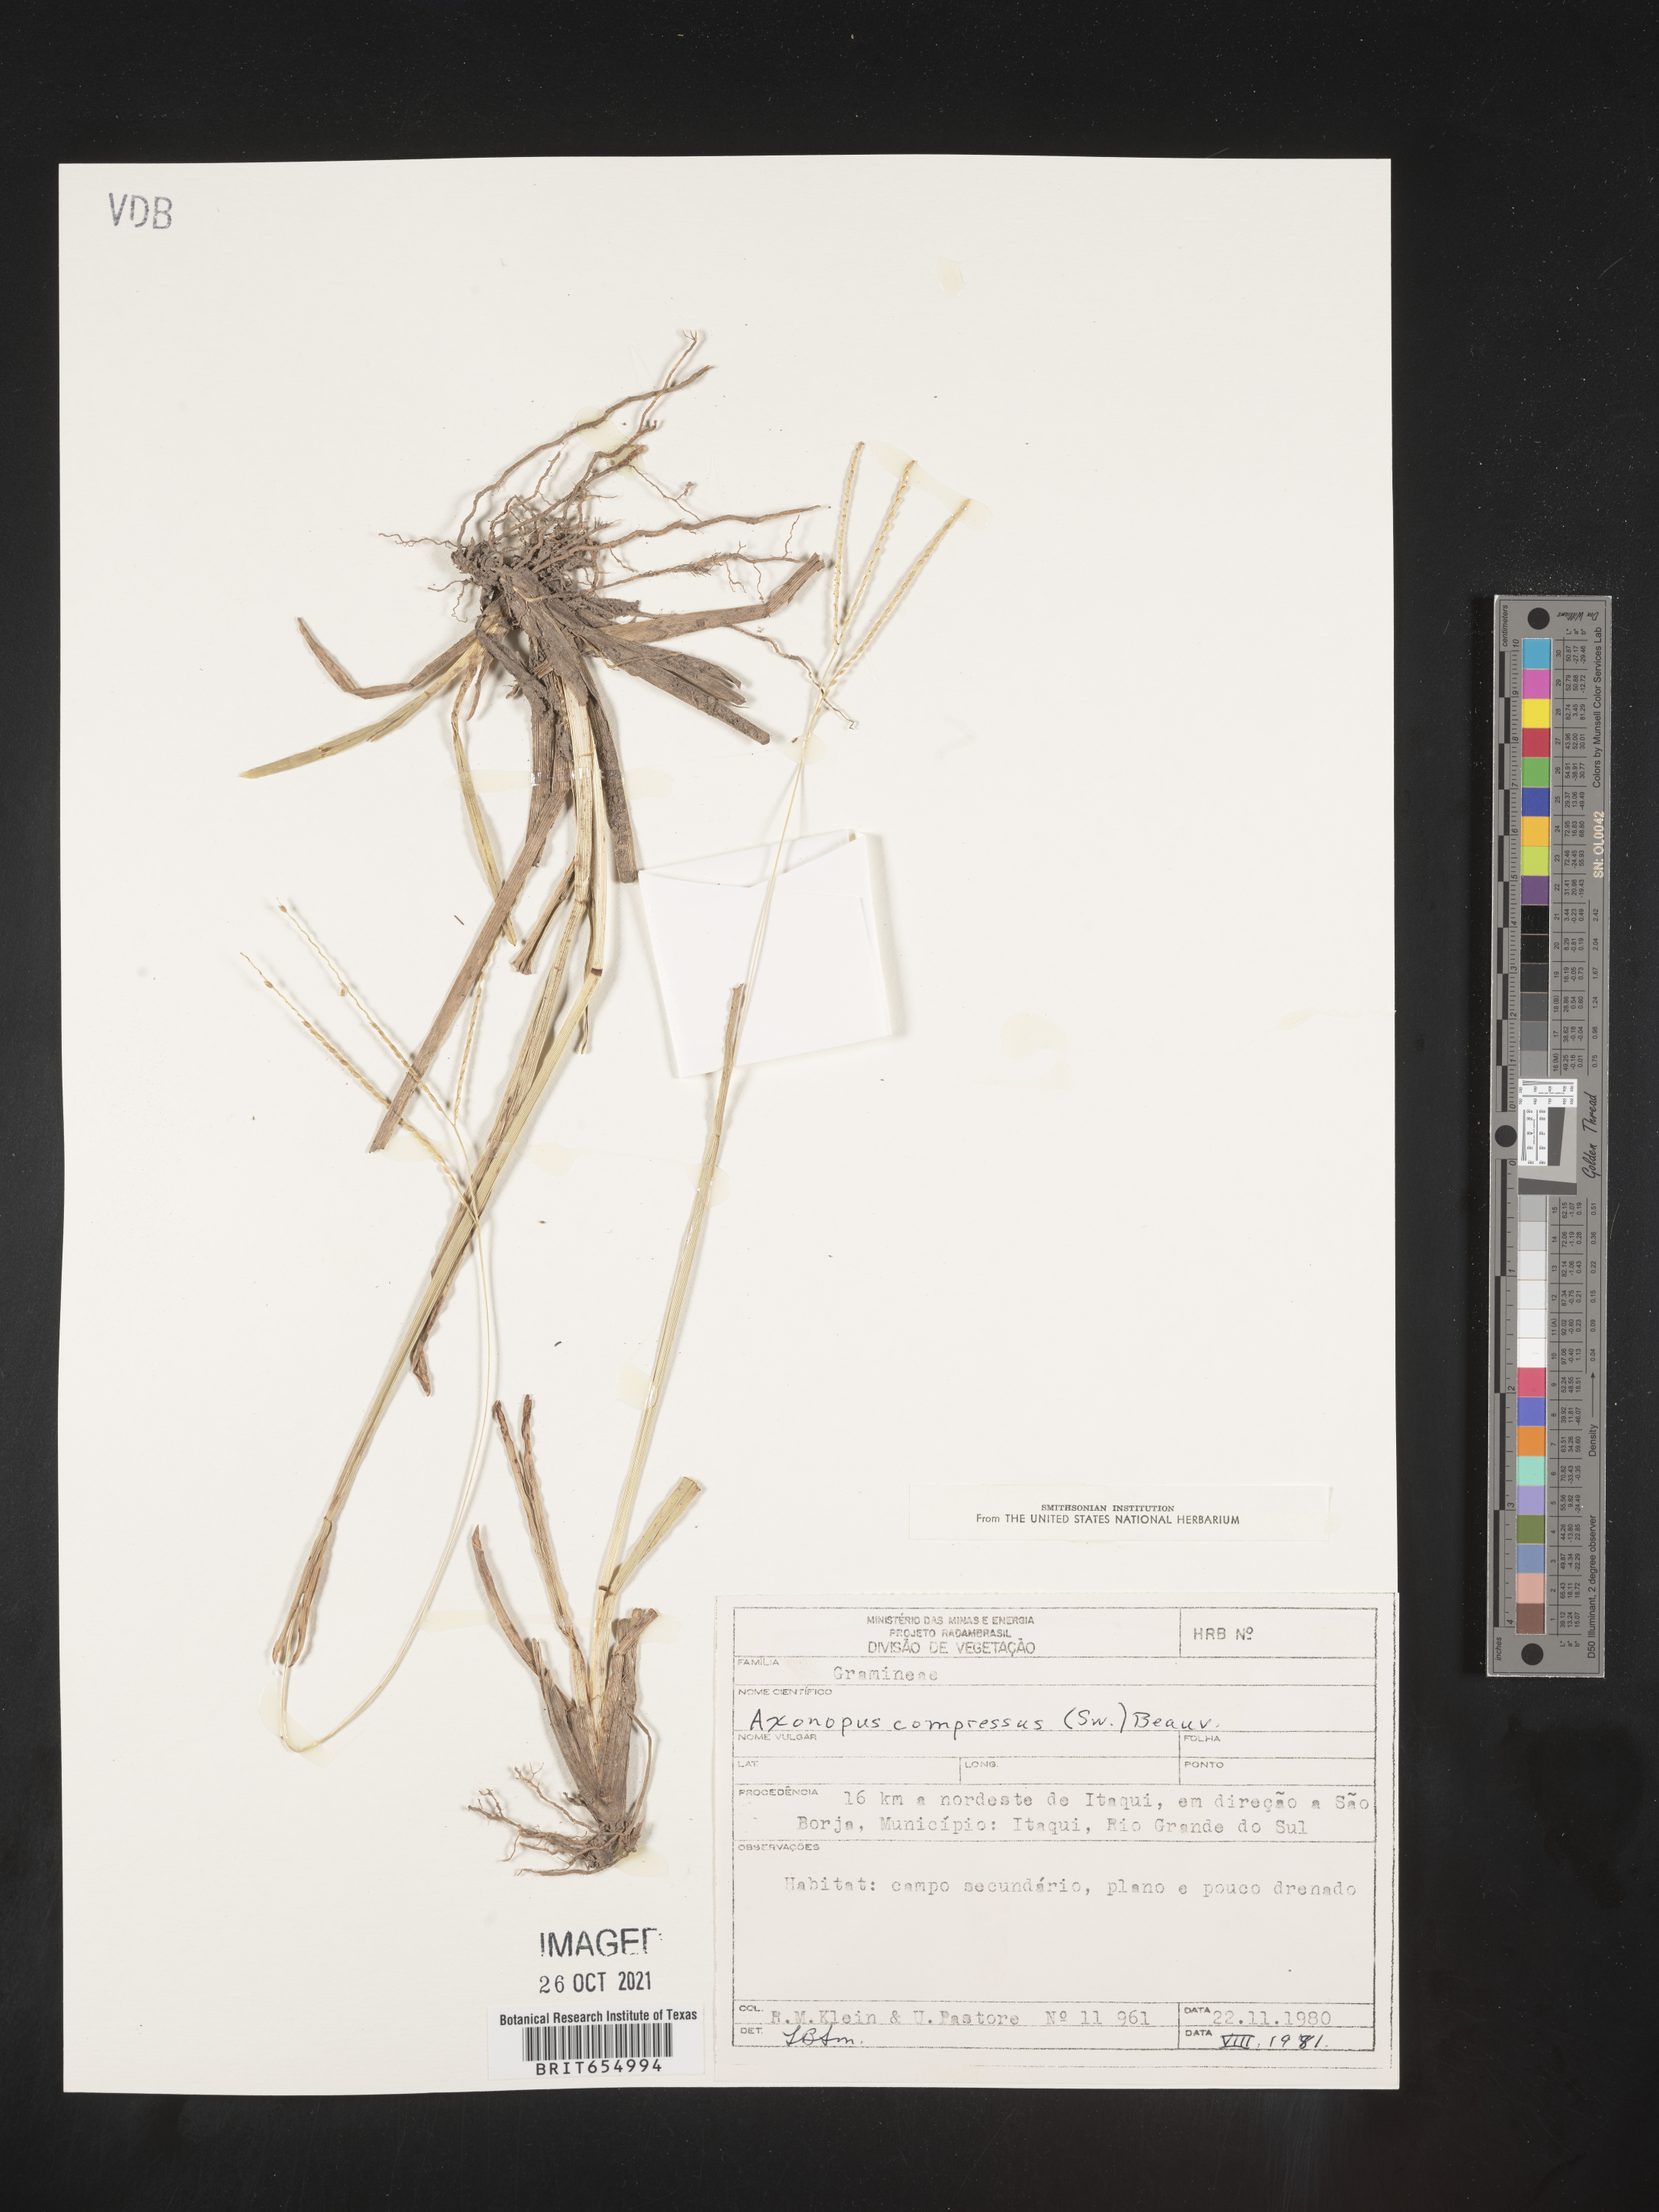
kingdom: Plantae
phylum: Tracheophyta
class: Liliopsida
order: Poales
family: Poaceae
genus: Axonopus
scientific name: Axonopus
